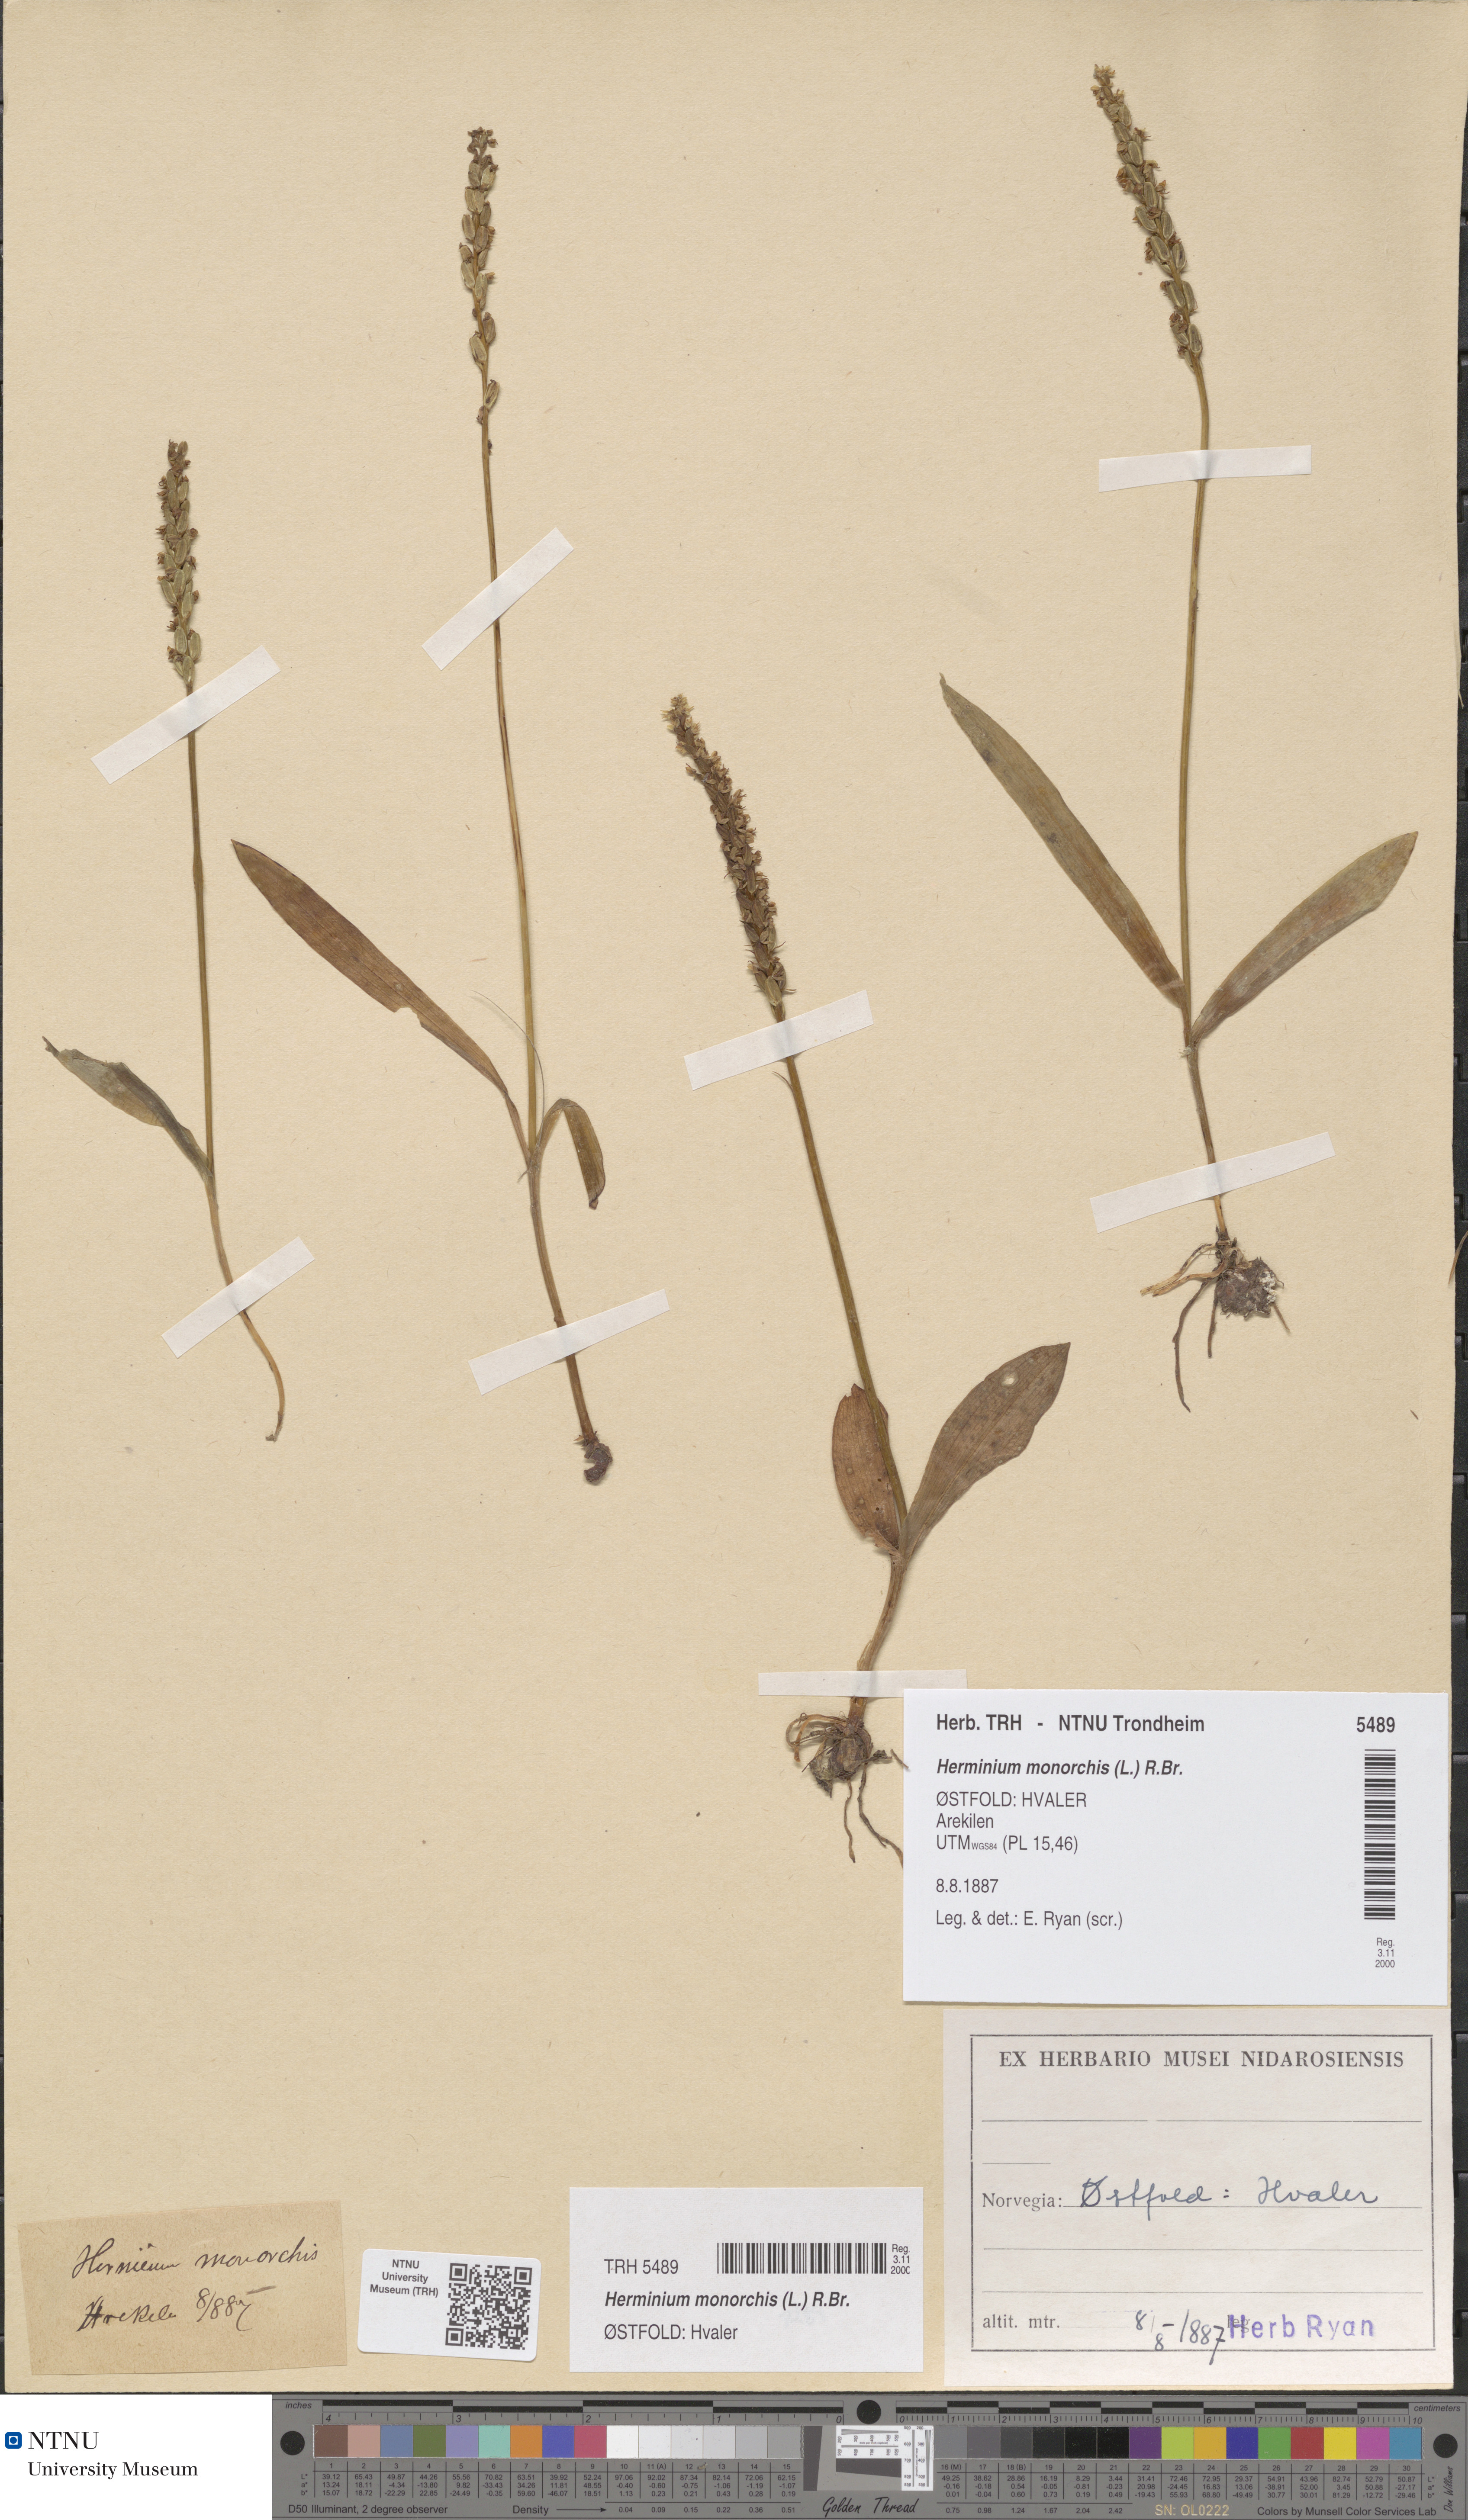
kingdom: Plantae
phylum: Tracheophyta
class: Liliopsida
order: Asparagales
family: Orchidaceae
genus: Herminium
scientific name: Herminium monorchis
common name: Musk orchid
